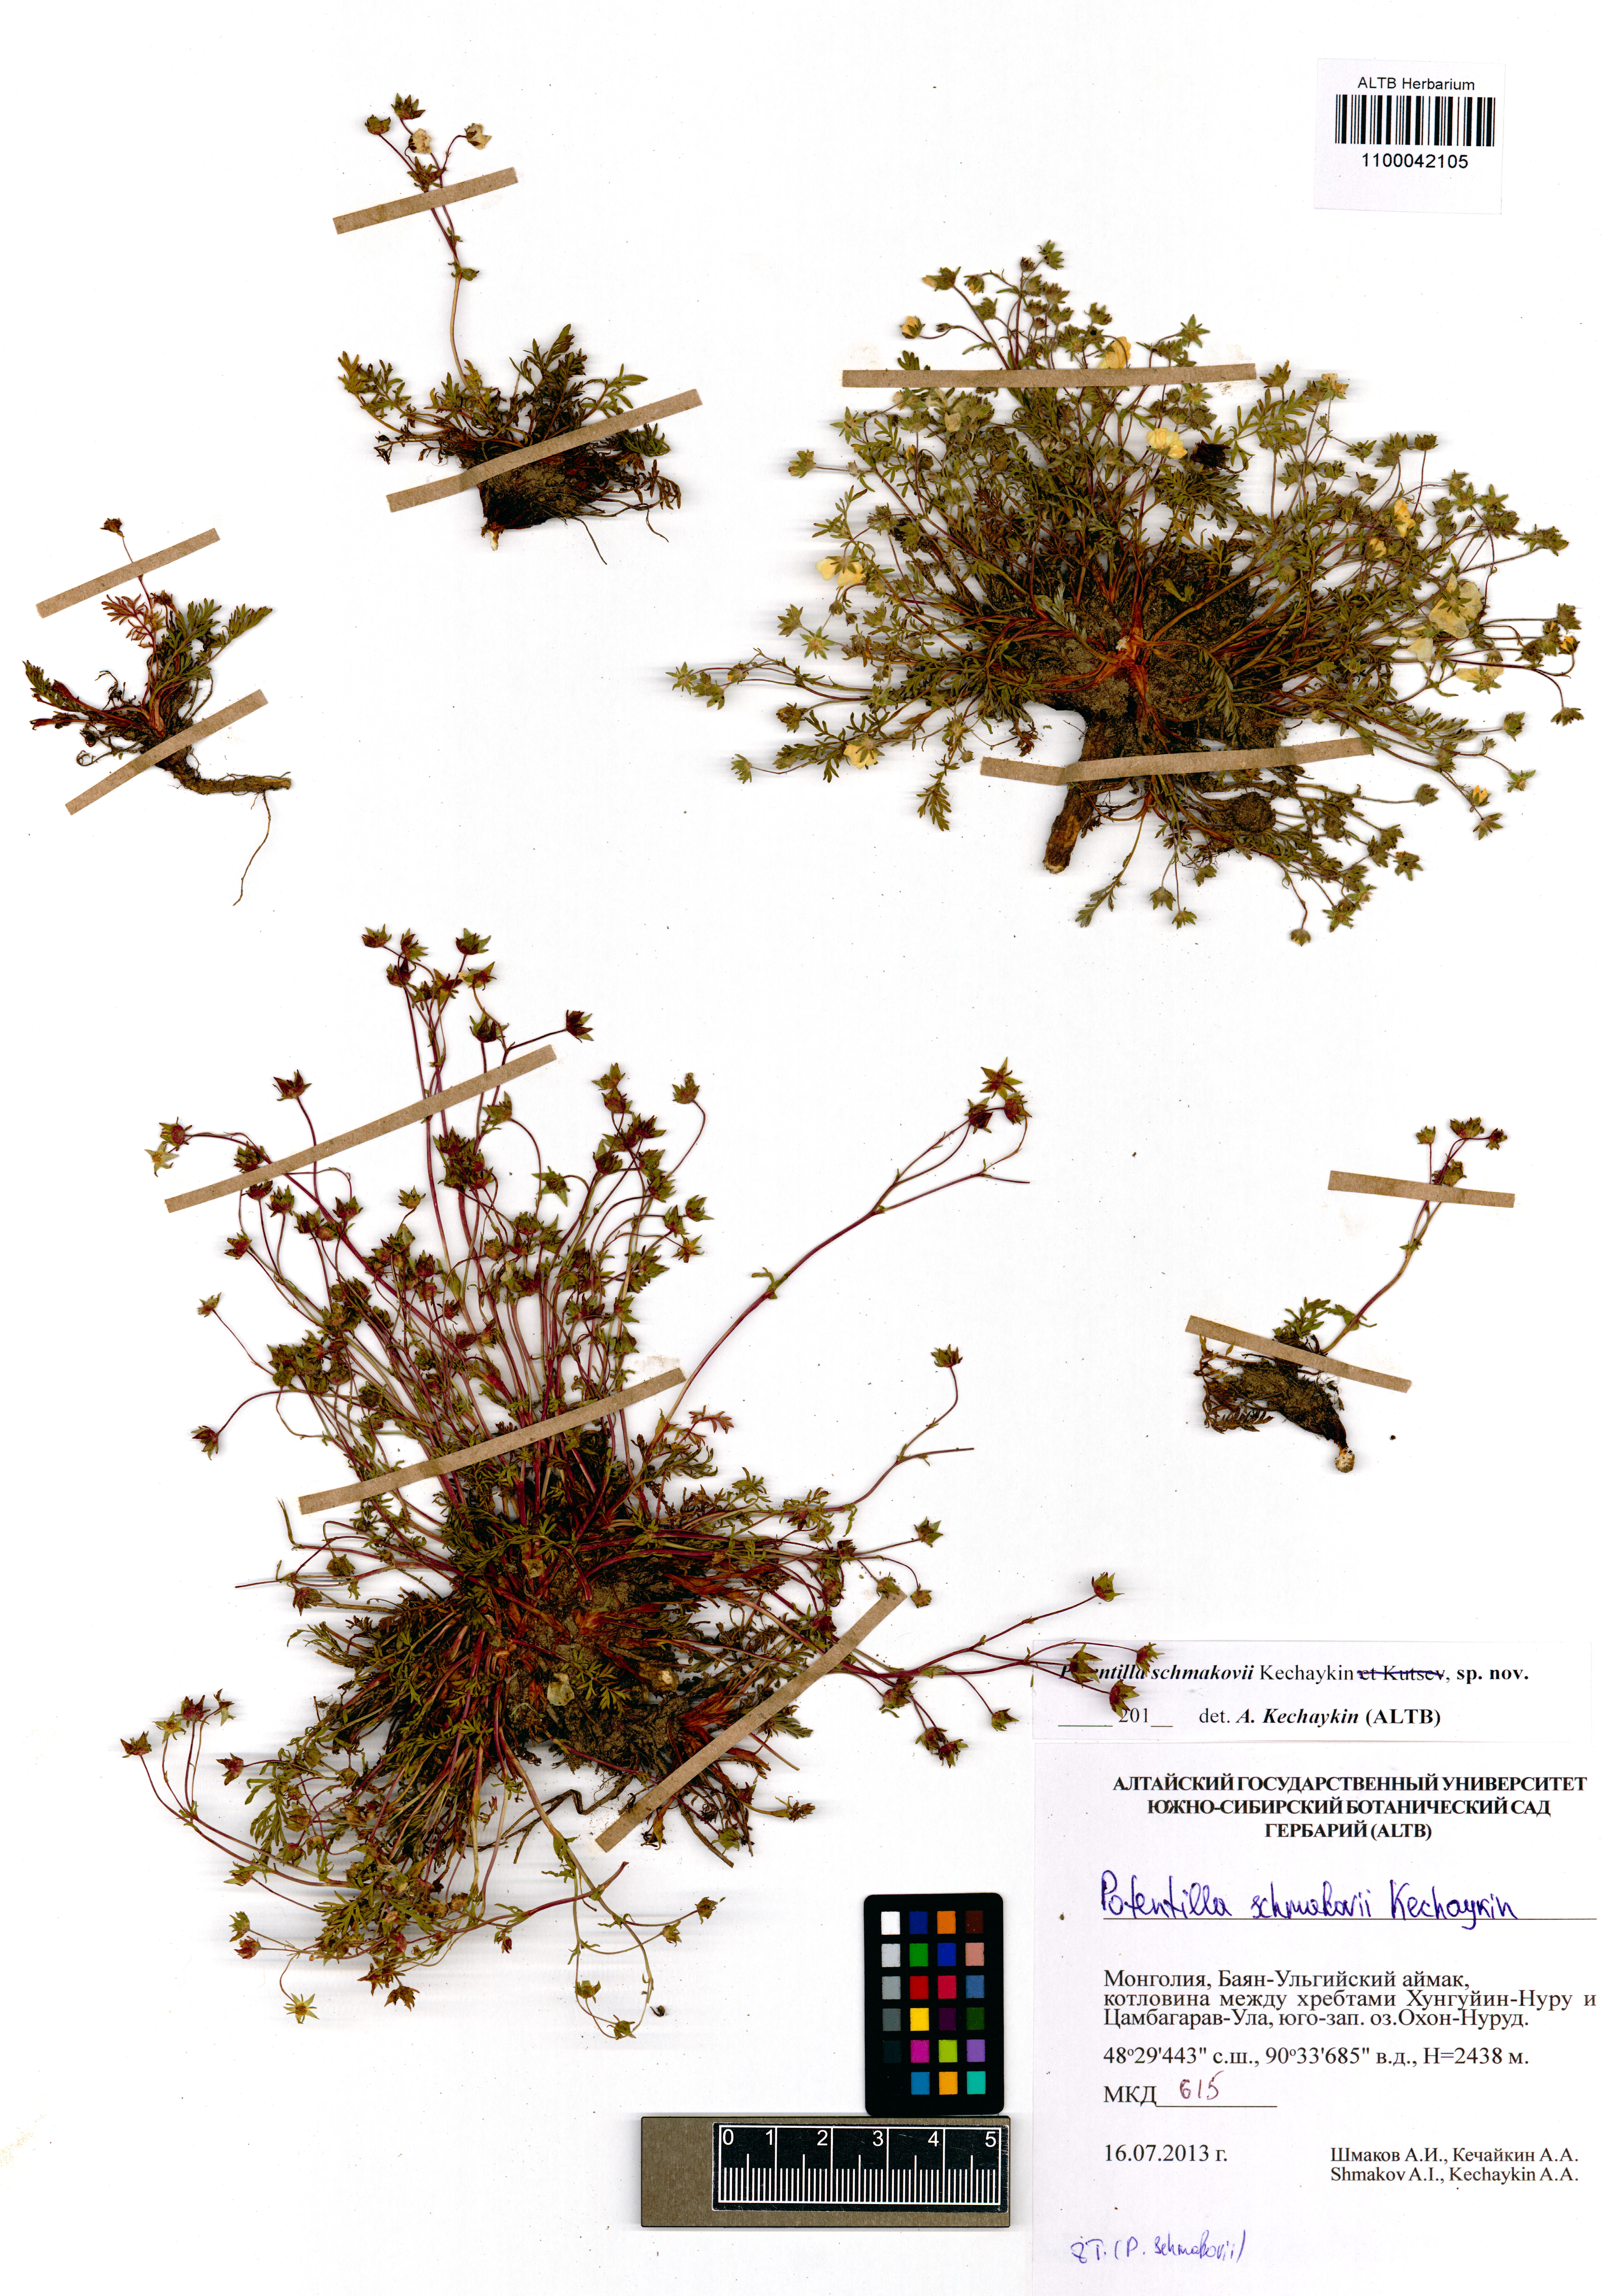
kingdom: Plantae
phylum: Tracheophyta
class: Magnoliopsida
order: Rosales
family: Rosaceae
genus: Potentilla
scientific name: Potentilla schmakovii
